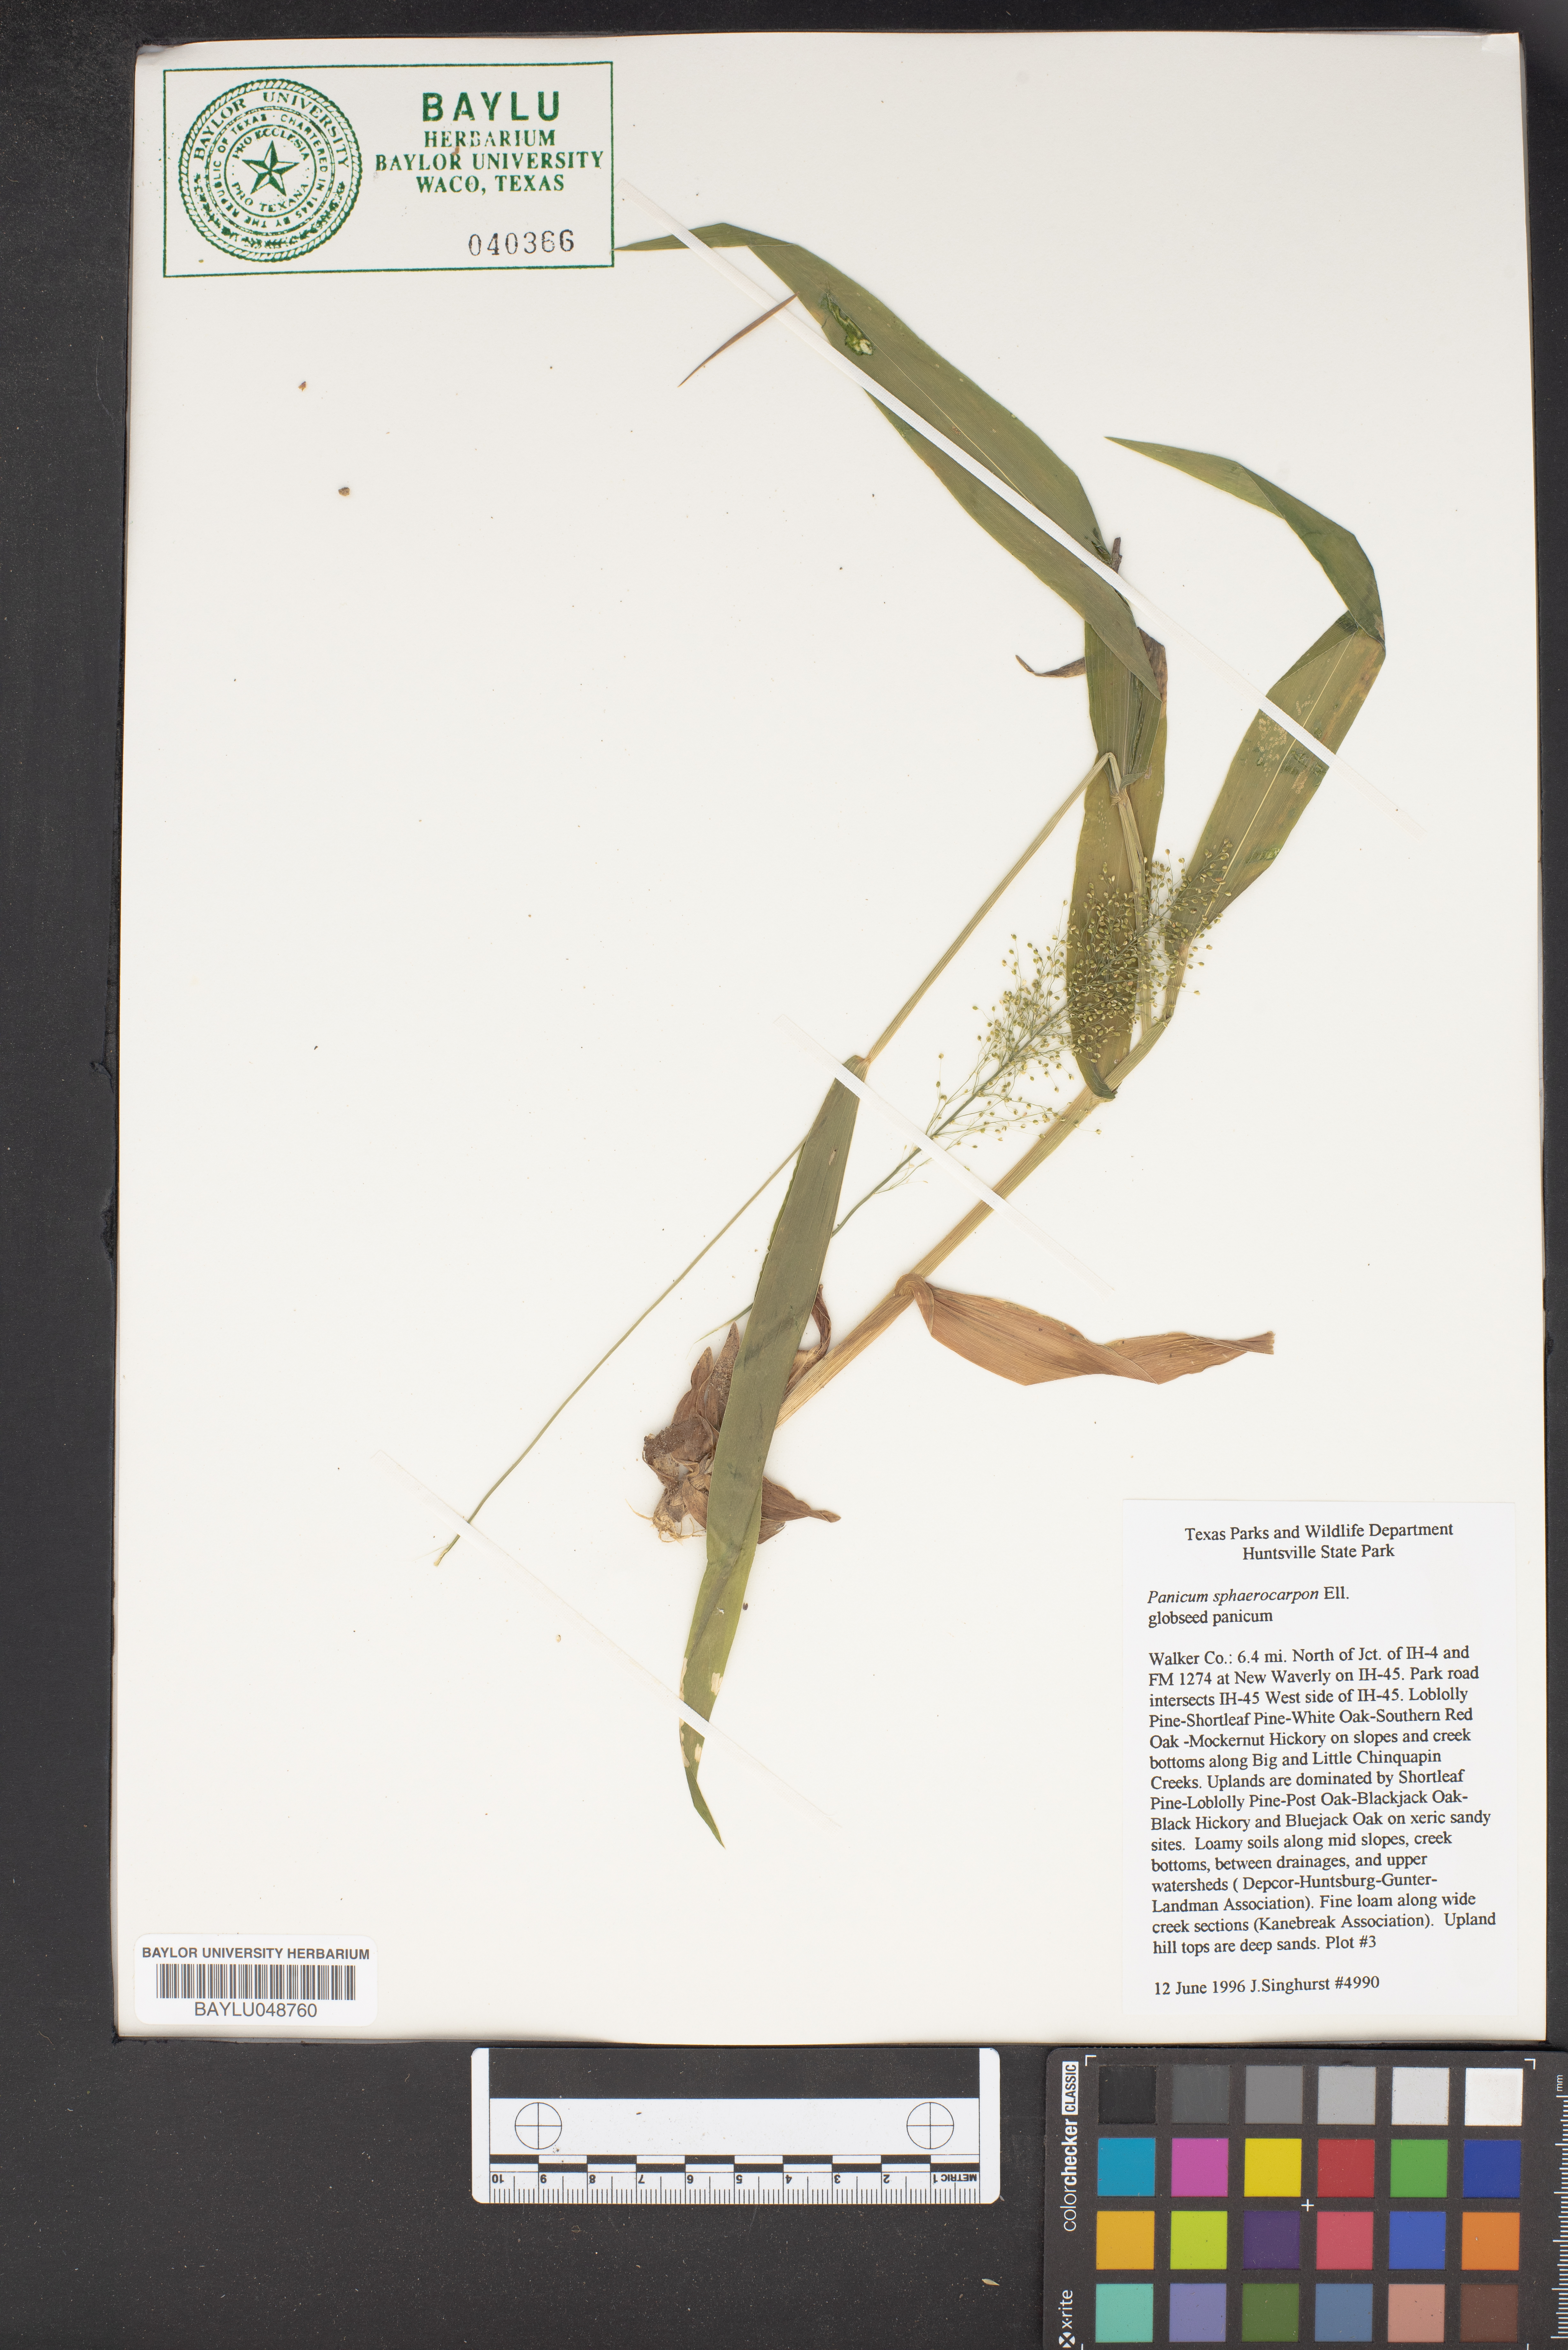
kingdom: Plantae
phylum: Tracheophyta
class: Liliopsida
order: Poales
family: Poaceae
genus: Dichanthelium
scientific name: Dichanthelium sphaerocarpon
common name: Round-fruited panicgrass
